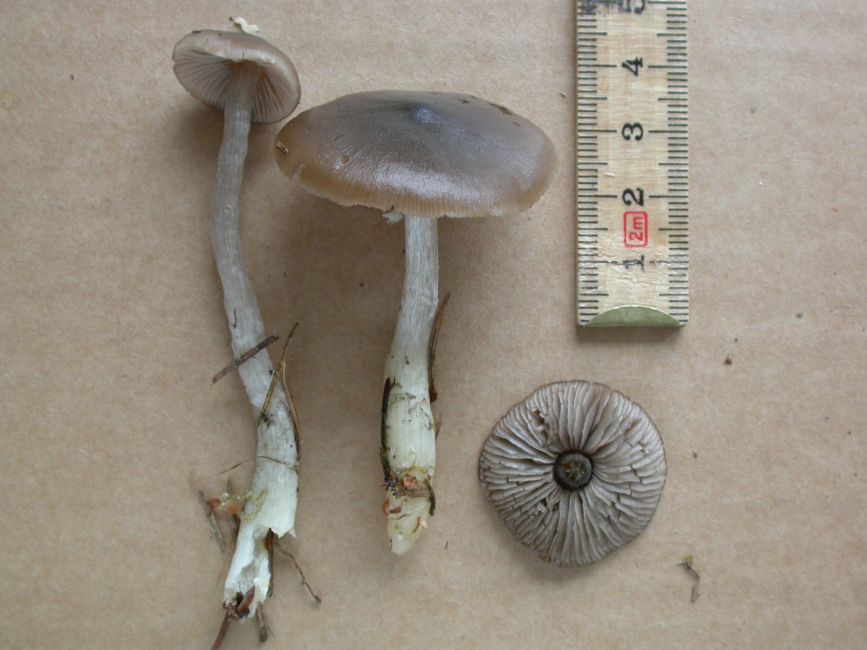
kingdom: Fungi
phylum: Basidiomycota
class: Agaricomycetes
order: Agaricales
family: Entolomataceae
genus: Entocybe
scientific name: Entocybe turbida
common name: plantage-rødblad
